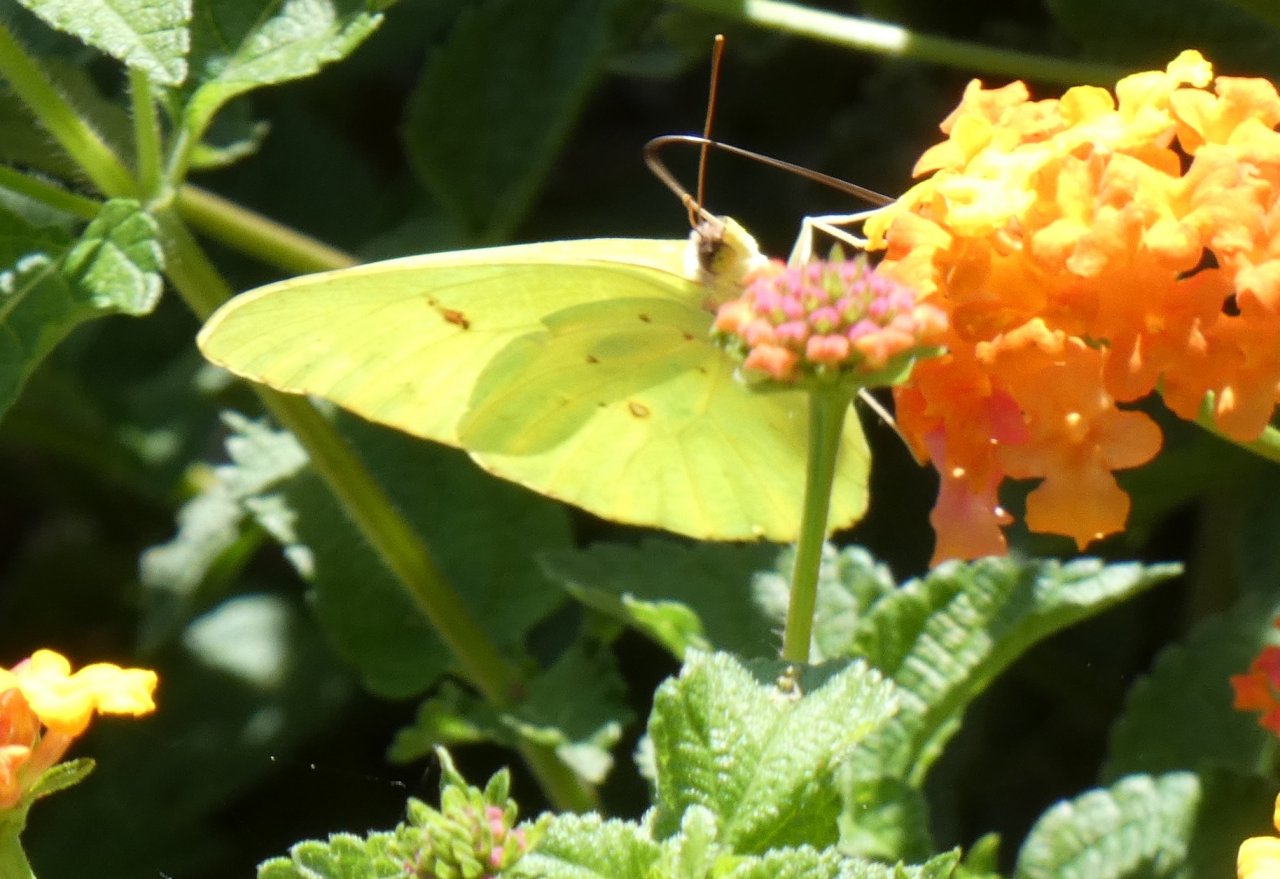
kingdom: Animalia
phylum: Arthropoda
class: Insecta
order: Lepidoptera
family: Pieridae
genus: Phoebis
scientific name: Phoebis sennae
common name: Cloudless Sulphur
